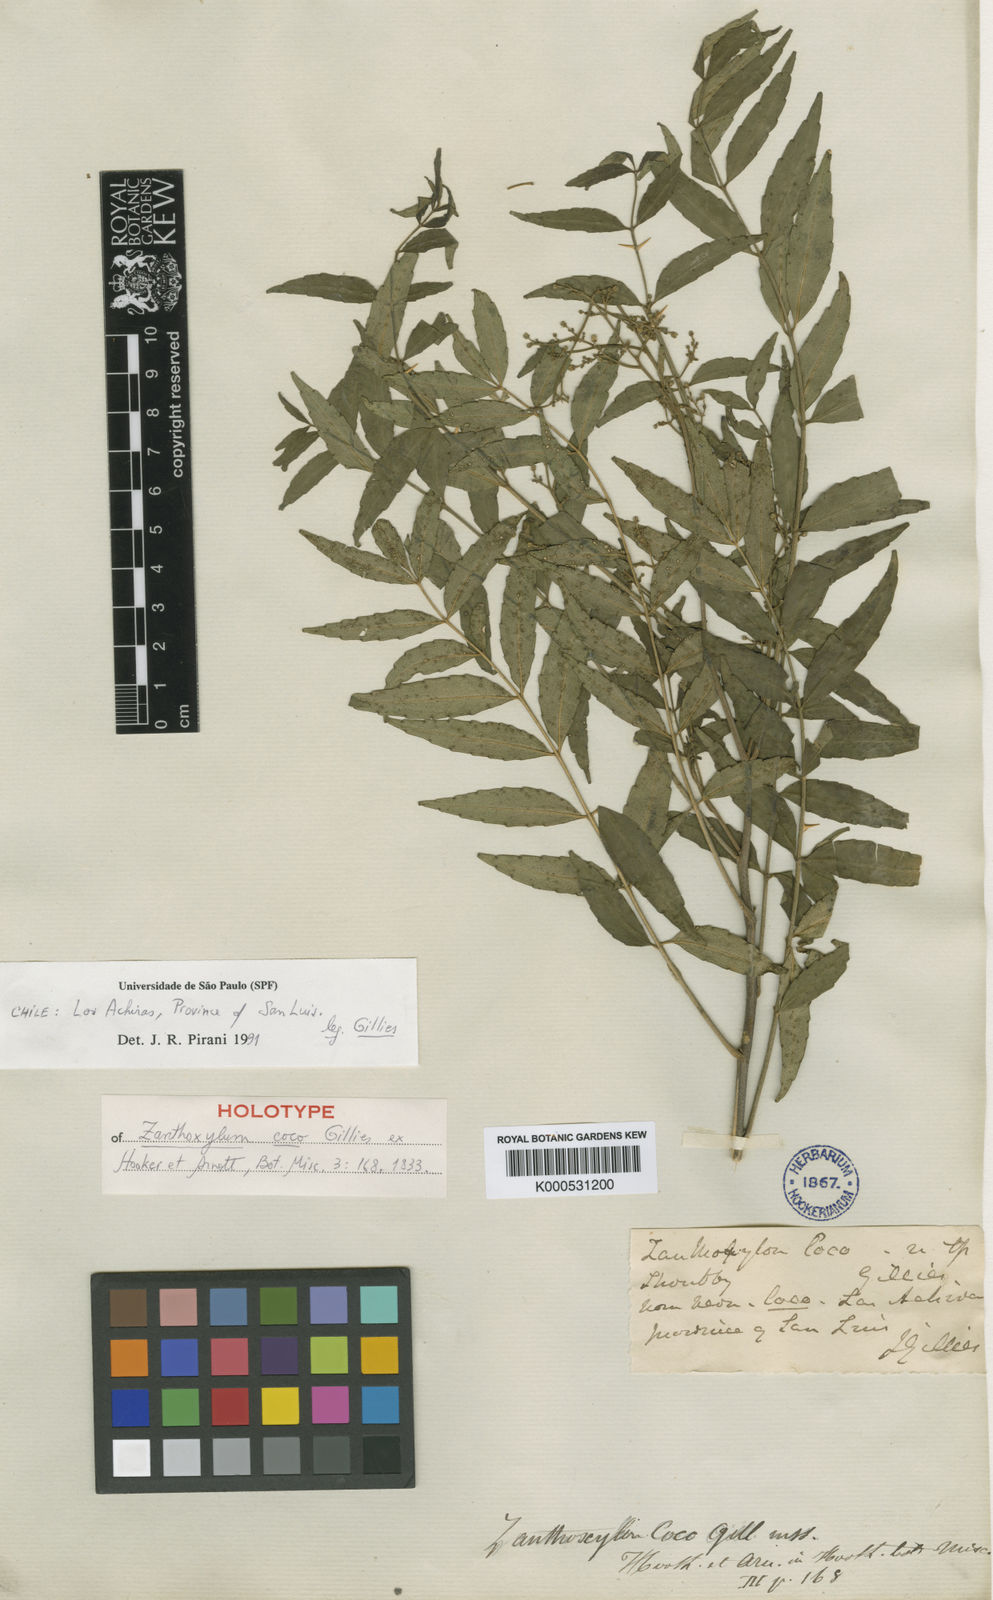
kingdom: Plantae
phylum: Tracheophyta
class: Magnoliopsida
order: Sapindales
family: Rutaceae
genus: Zanthoxylum
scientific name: Zanthoxylum coco
